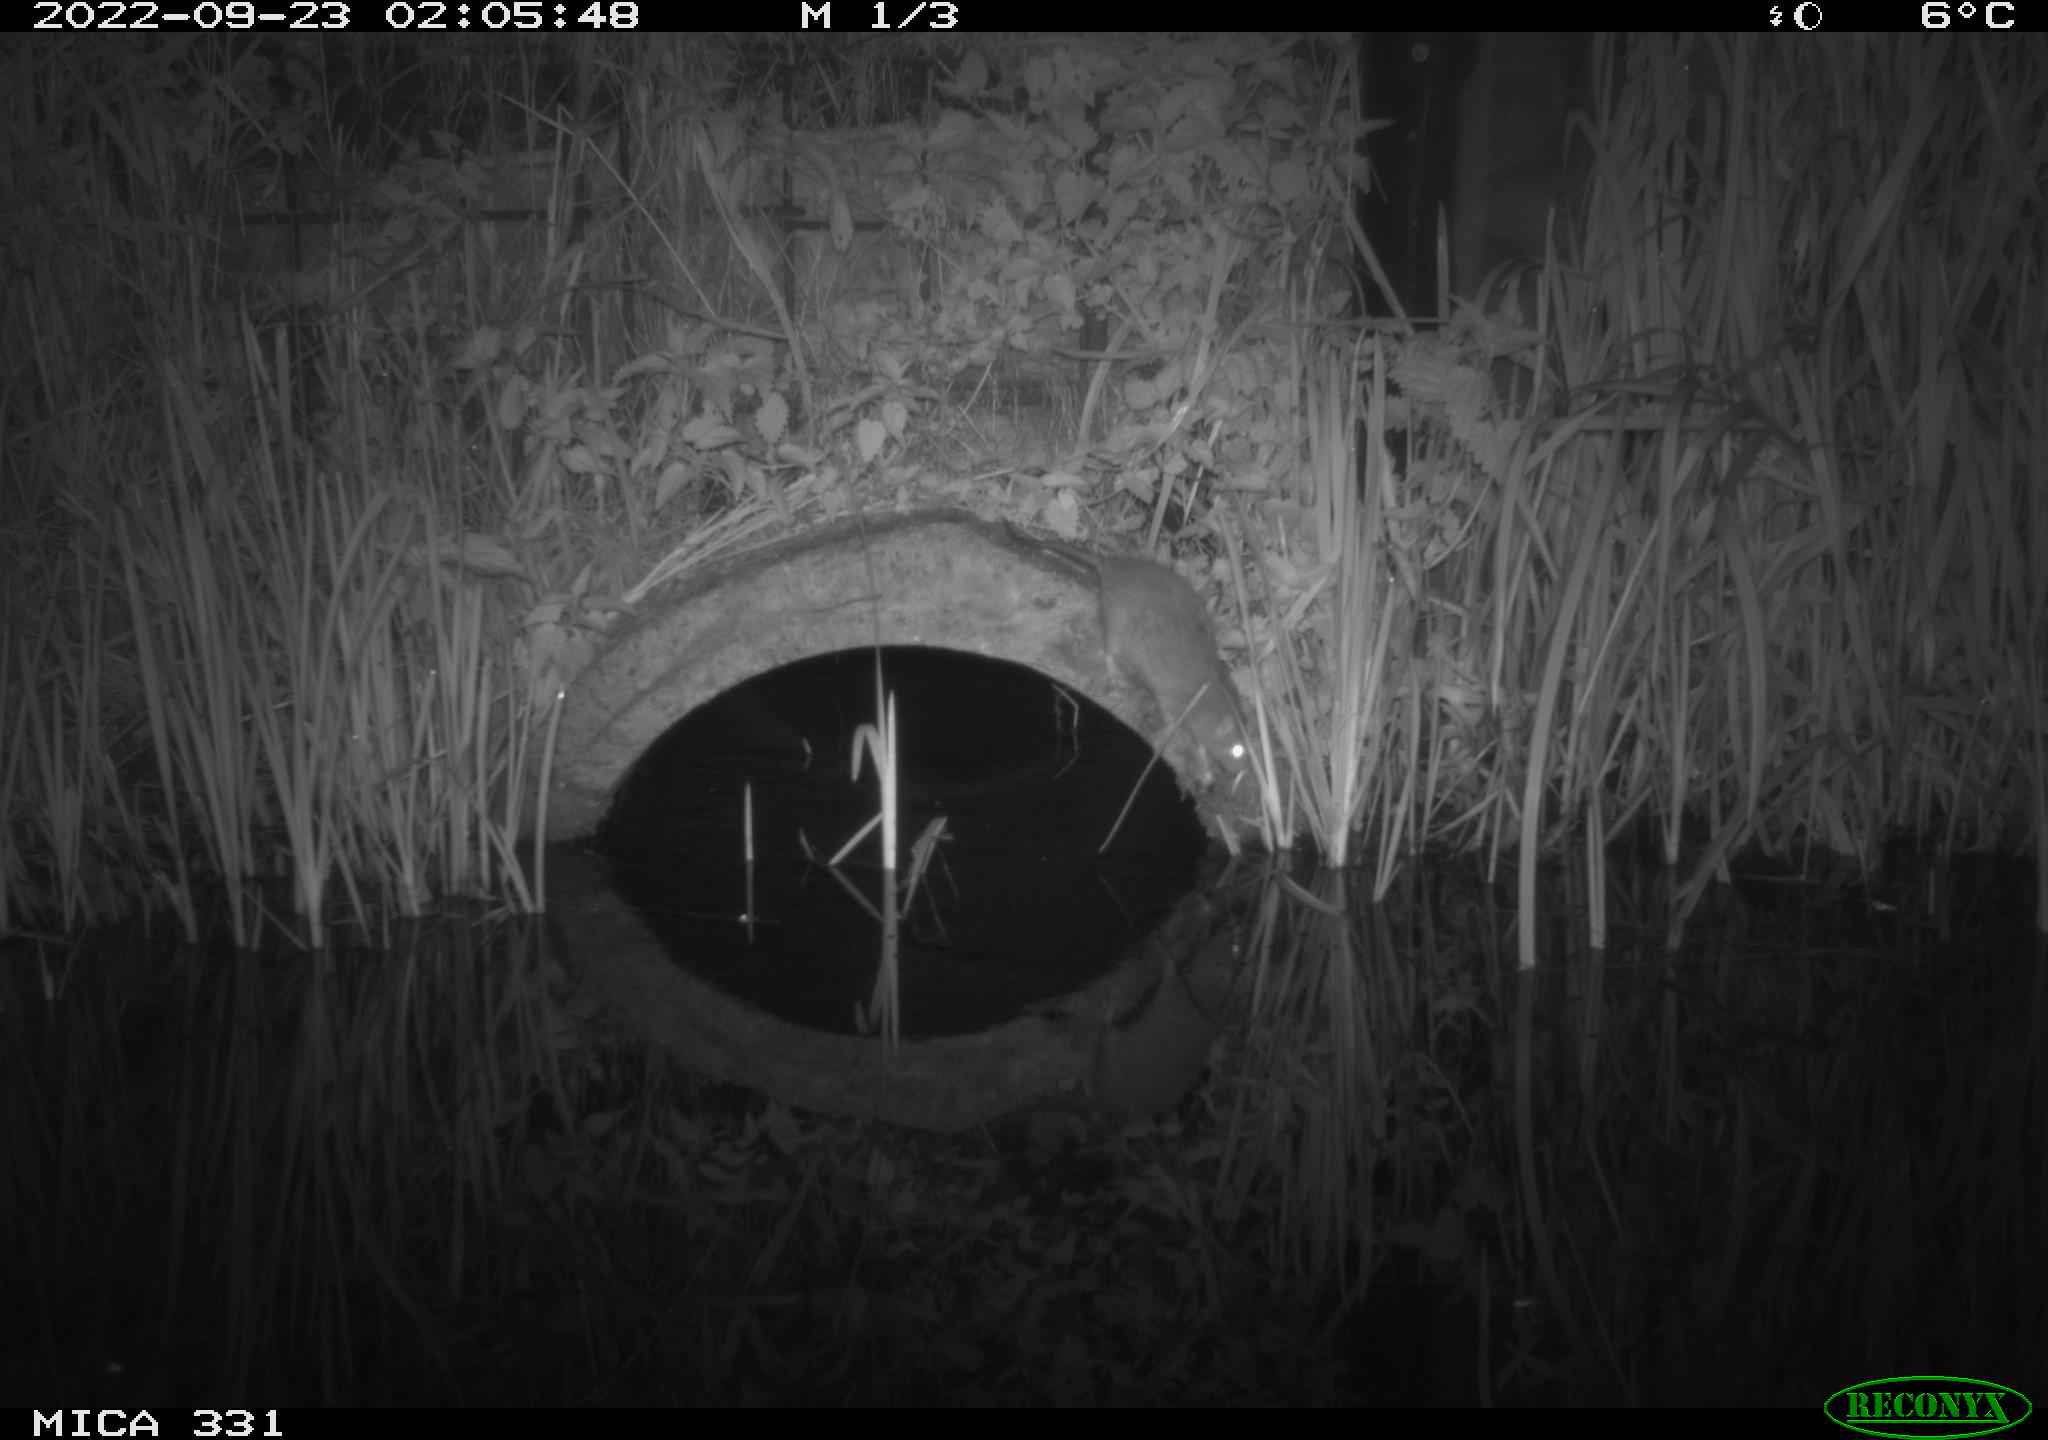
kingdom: Animalia
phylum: Chordata
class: Mammalia
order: Rodentia
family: Muridae
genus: Rattus
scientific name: Rattus norvegicus
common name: Brown rat
